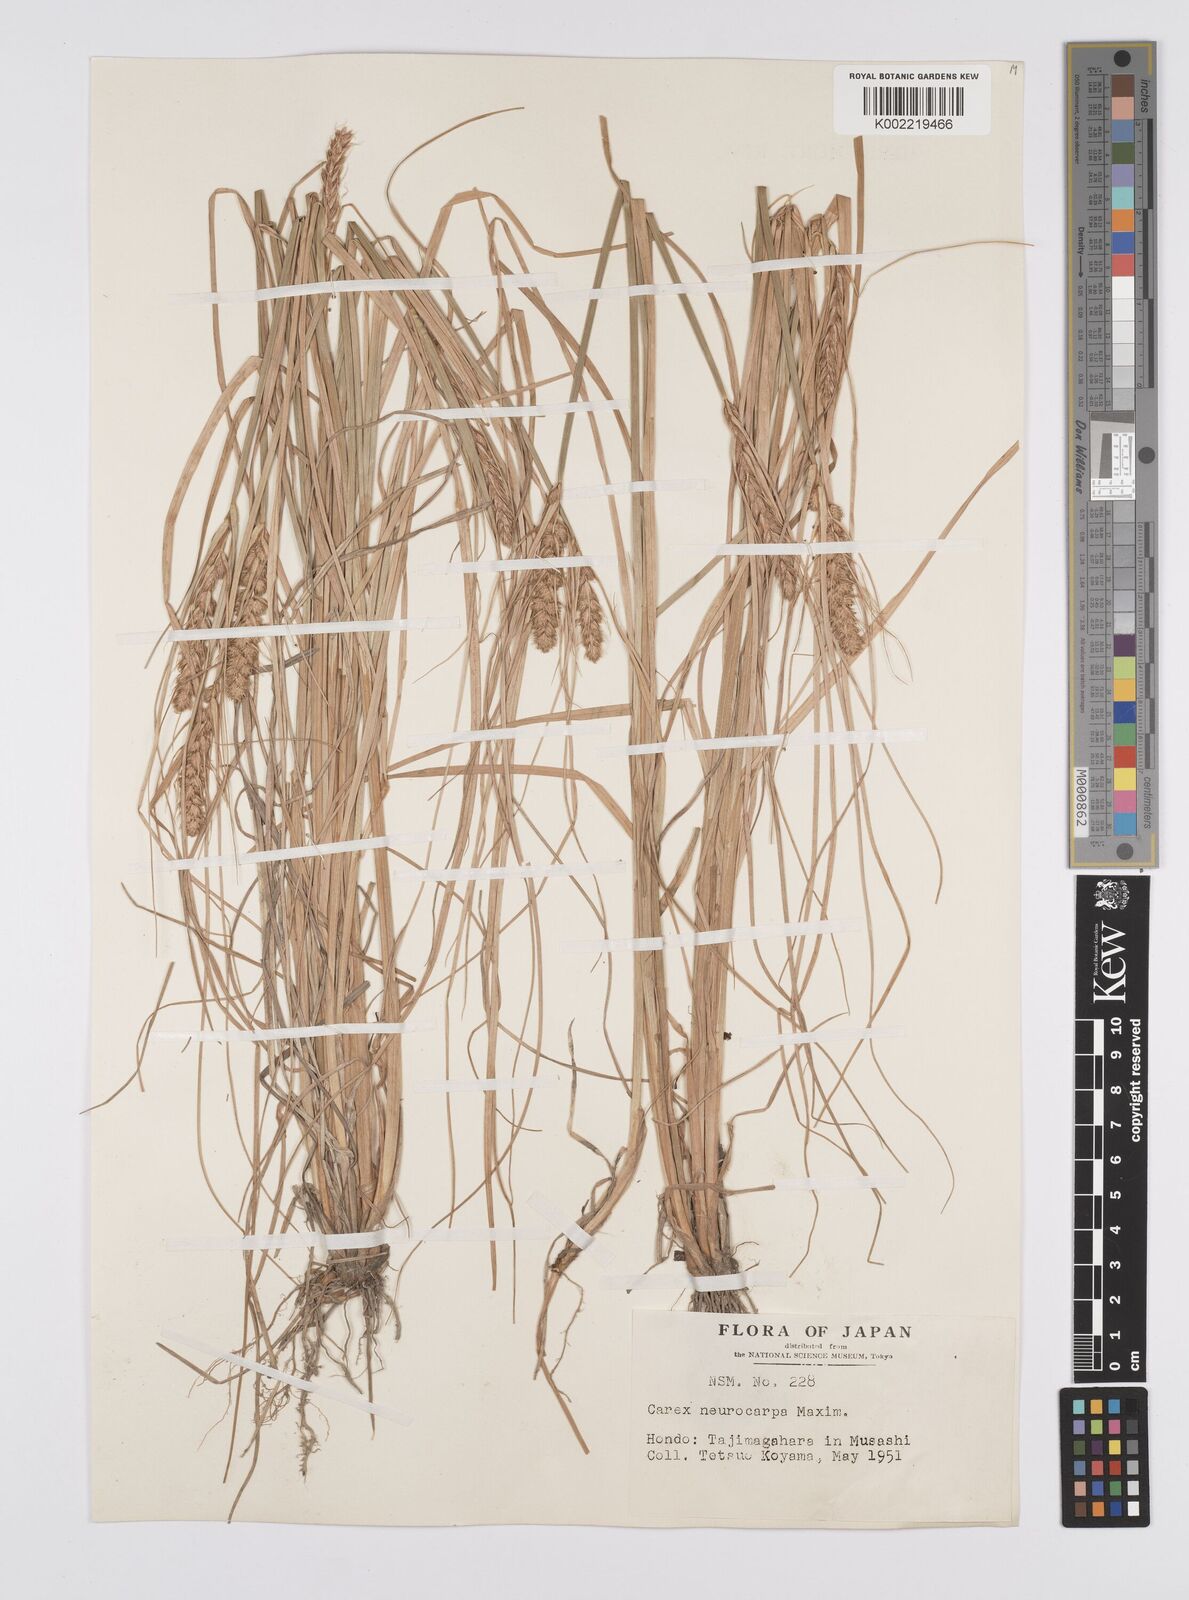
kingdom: Plantae
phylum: Tracheophyta
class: Liliopsida
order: Poales
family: Cyperaceae
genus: Carex
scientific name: Carex neurocarpa
